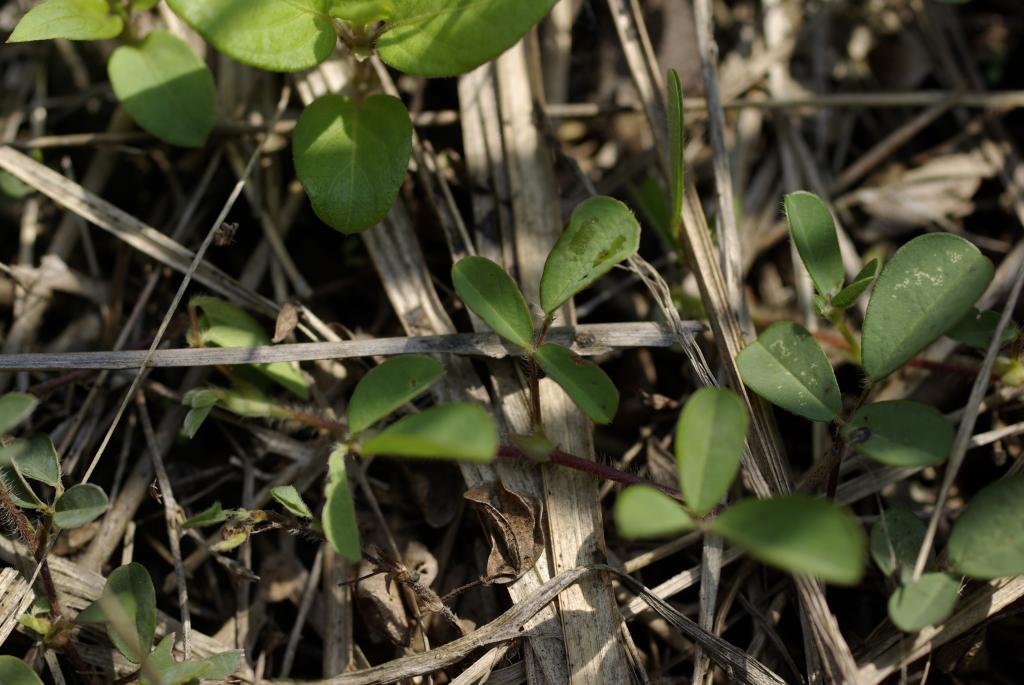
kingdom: Plantae
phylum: Tracheophyta
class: Magnoliopsida
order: Fabales
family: Fabaceae
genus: Grona
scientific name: Grona heterophylla
